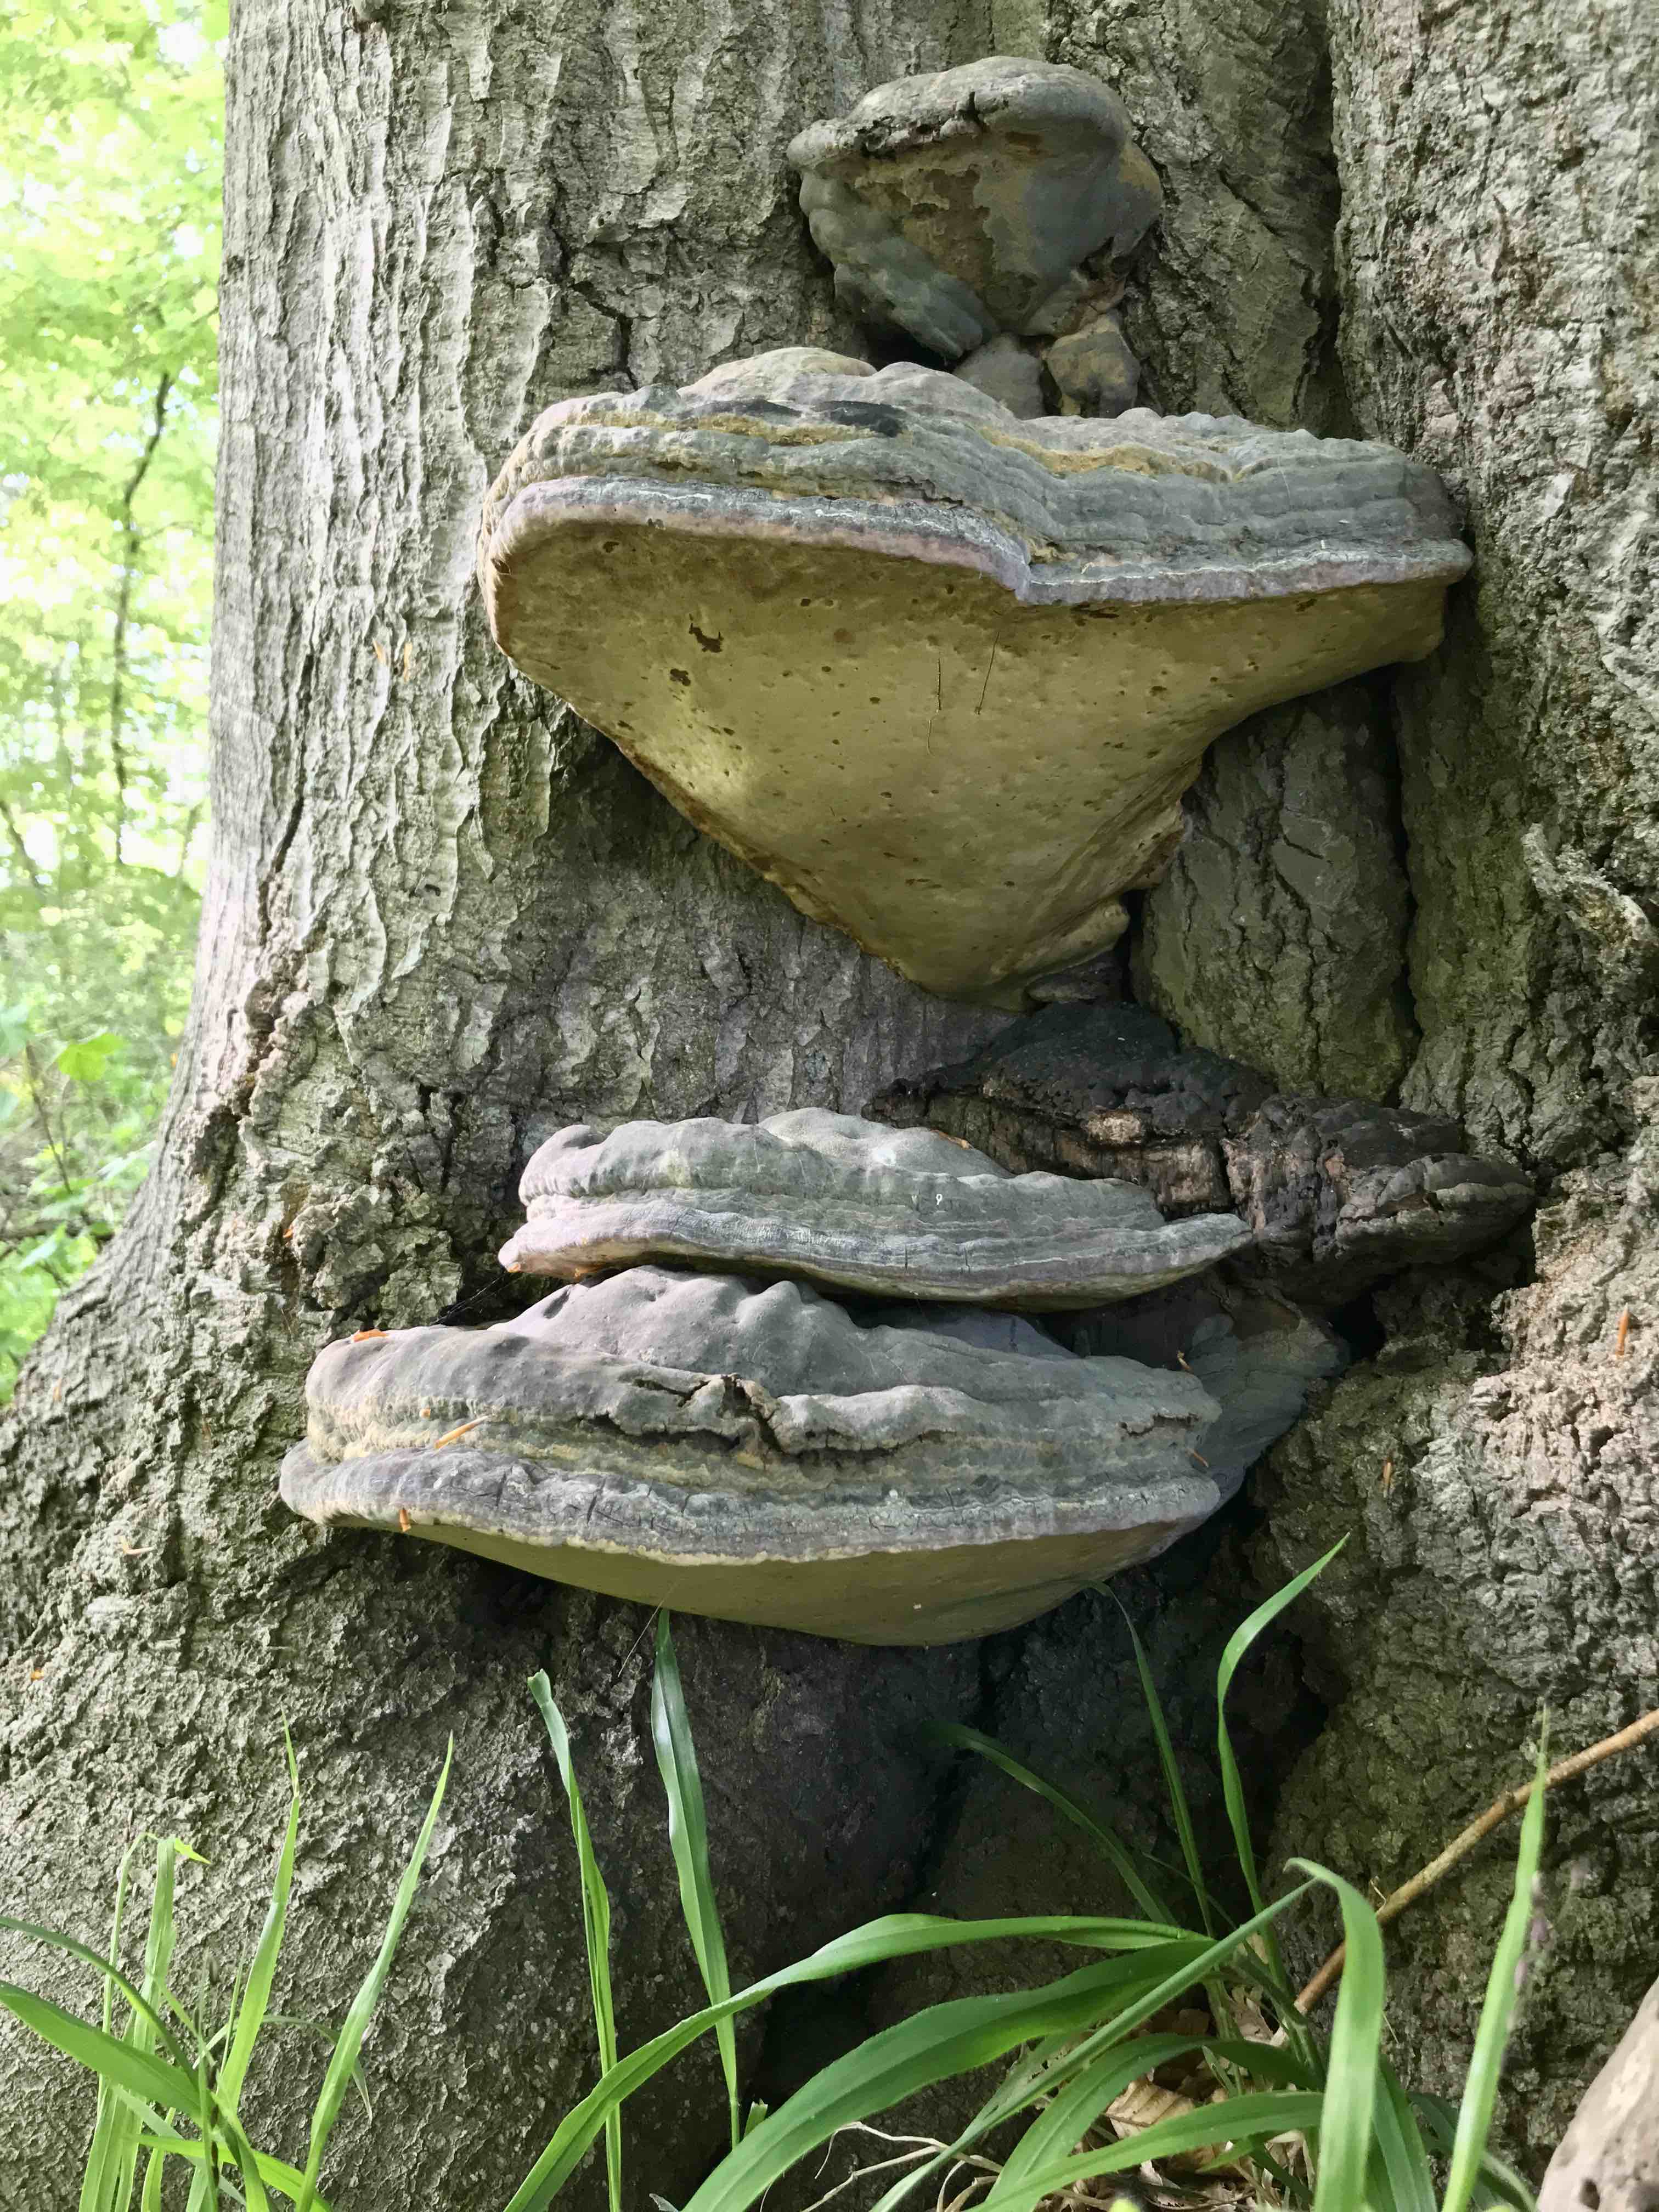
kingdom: Fungi
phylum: Basidiomycota
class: Agaricomycetes
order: Polyporales
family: Polyporaceae
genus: Ganoderma
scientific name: Ganoderma pfeifferi
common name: kobberrød lakporesvamp
